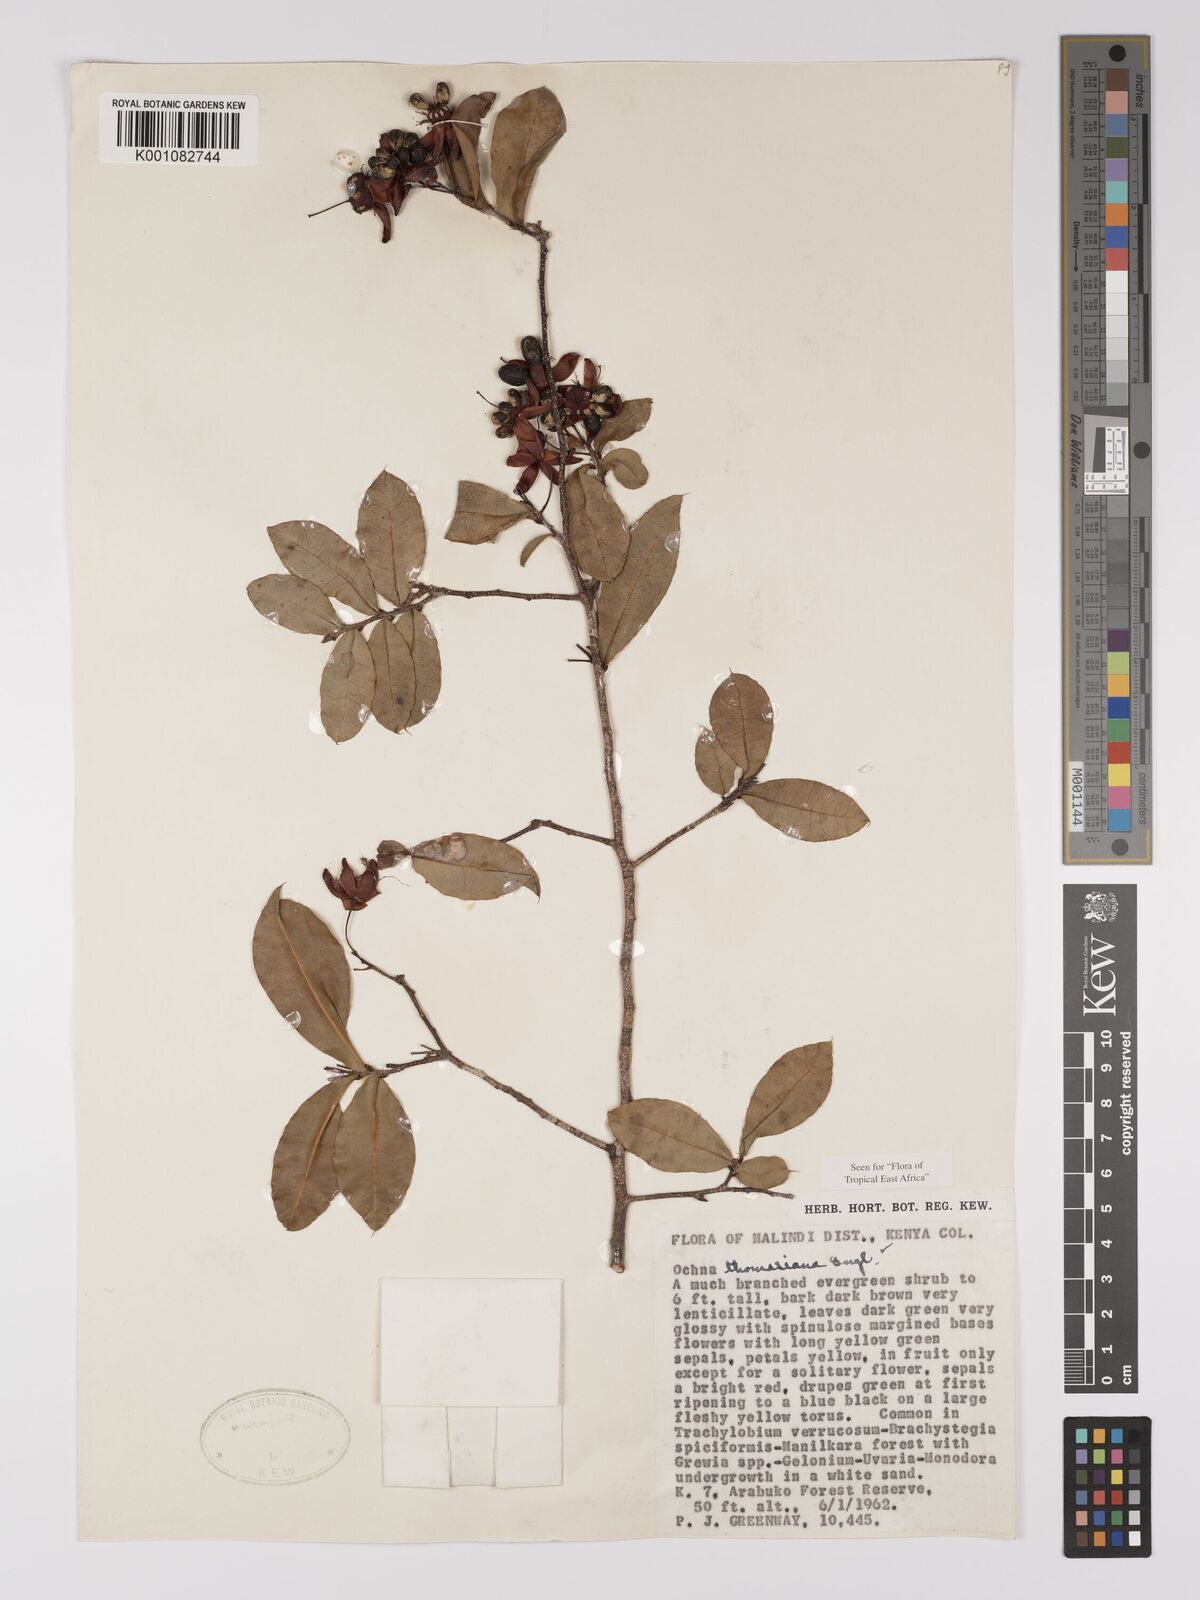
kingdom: Plantae
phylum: Tracheophyta
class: Magnoliopsida
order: Malpighiales
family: Ochnaceae
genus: Ochna
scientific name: Ochna thomasiana
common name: Thomas' bird's-eye bush
